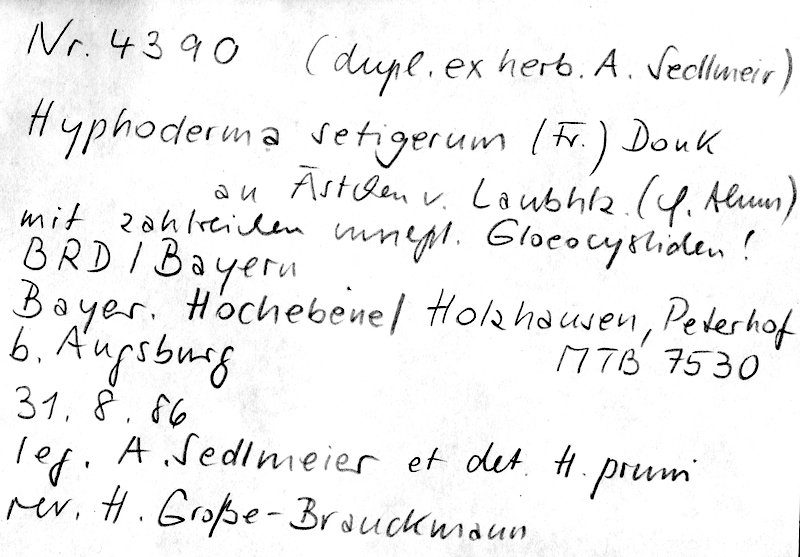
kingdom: Fungi
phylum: Basidiomycota
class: Agaricomycetes
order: Polyporales
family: Hyphodermataceae
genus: Hyphoderma
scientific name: Hyphoderma setigerum
